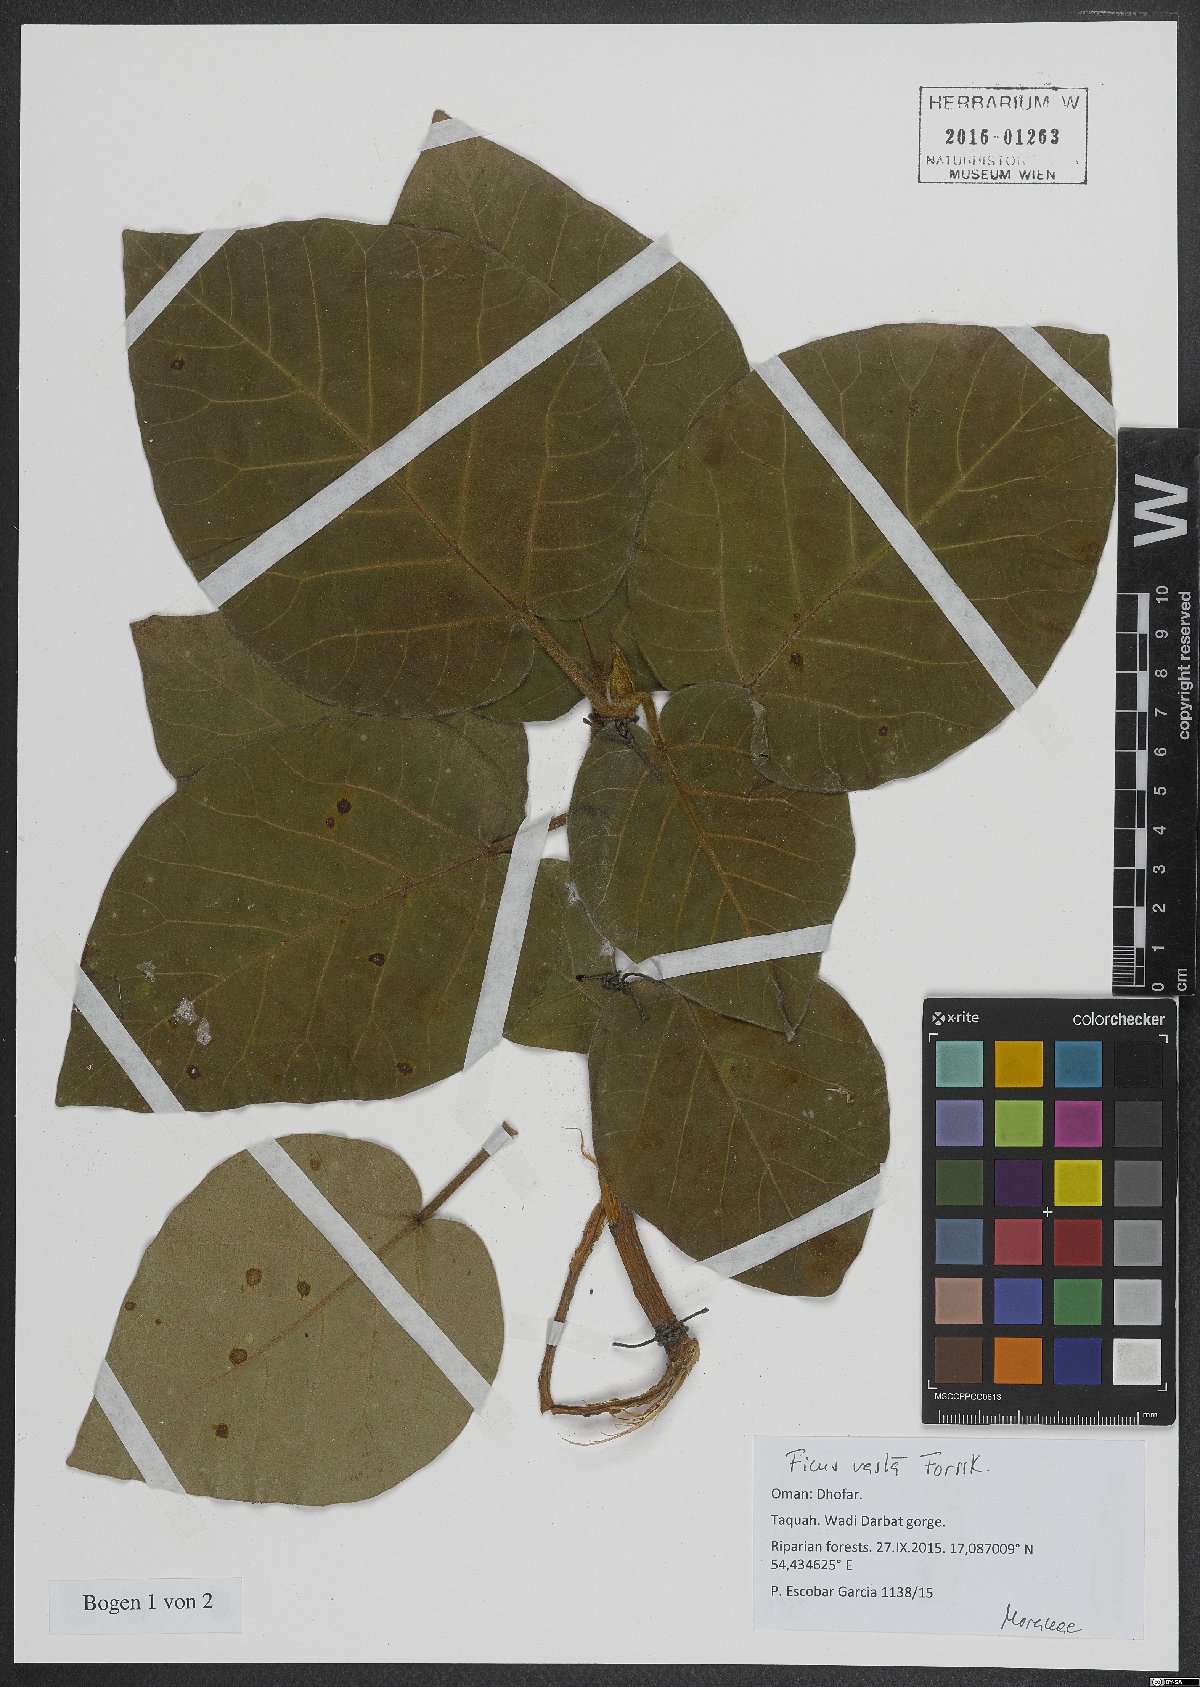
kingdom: Plantae
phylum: Tracheophyta
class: Magnoliopsida
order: Rosales
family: Moraceae
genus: Ficus
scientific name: Ficus vasta
